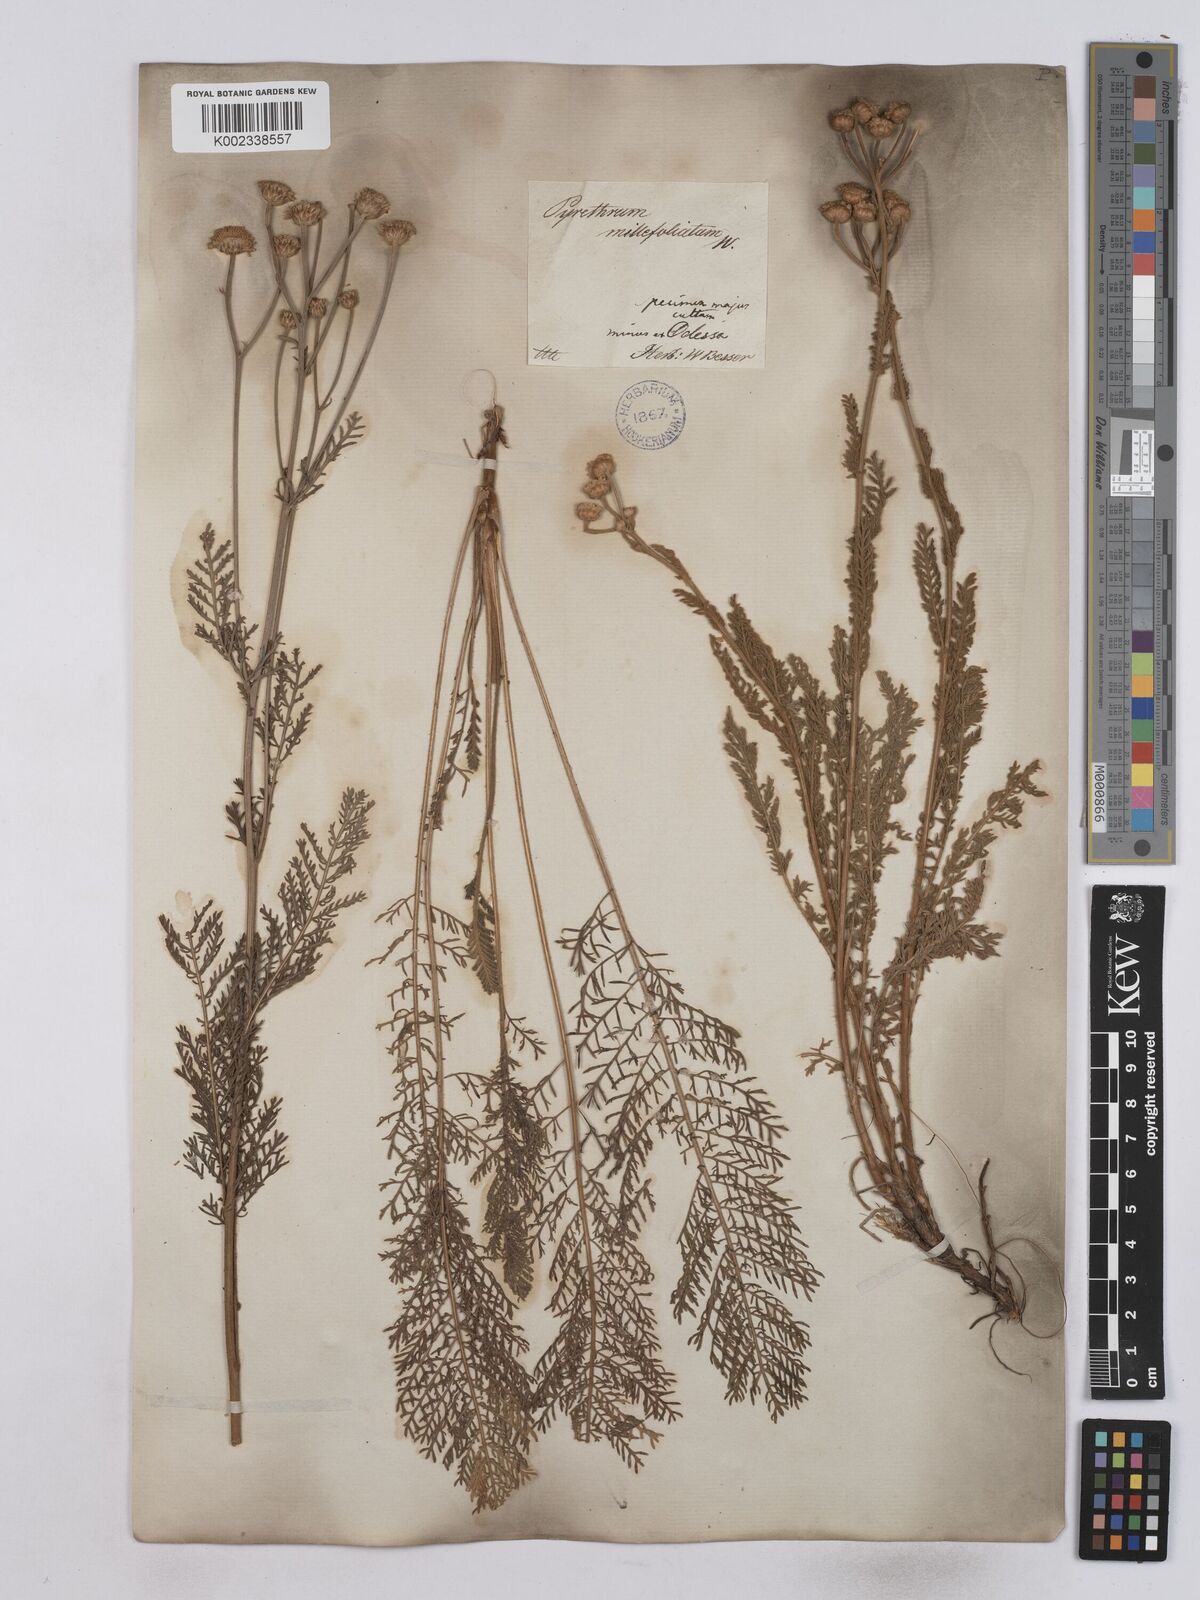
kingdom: Plantae
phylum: Tracheophyta
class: Magnoliopsida
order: Asterales
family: Asteraceae
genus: Tanacetum
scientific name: Tanacetum millefolium
